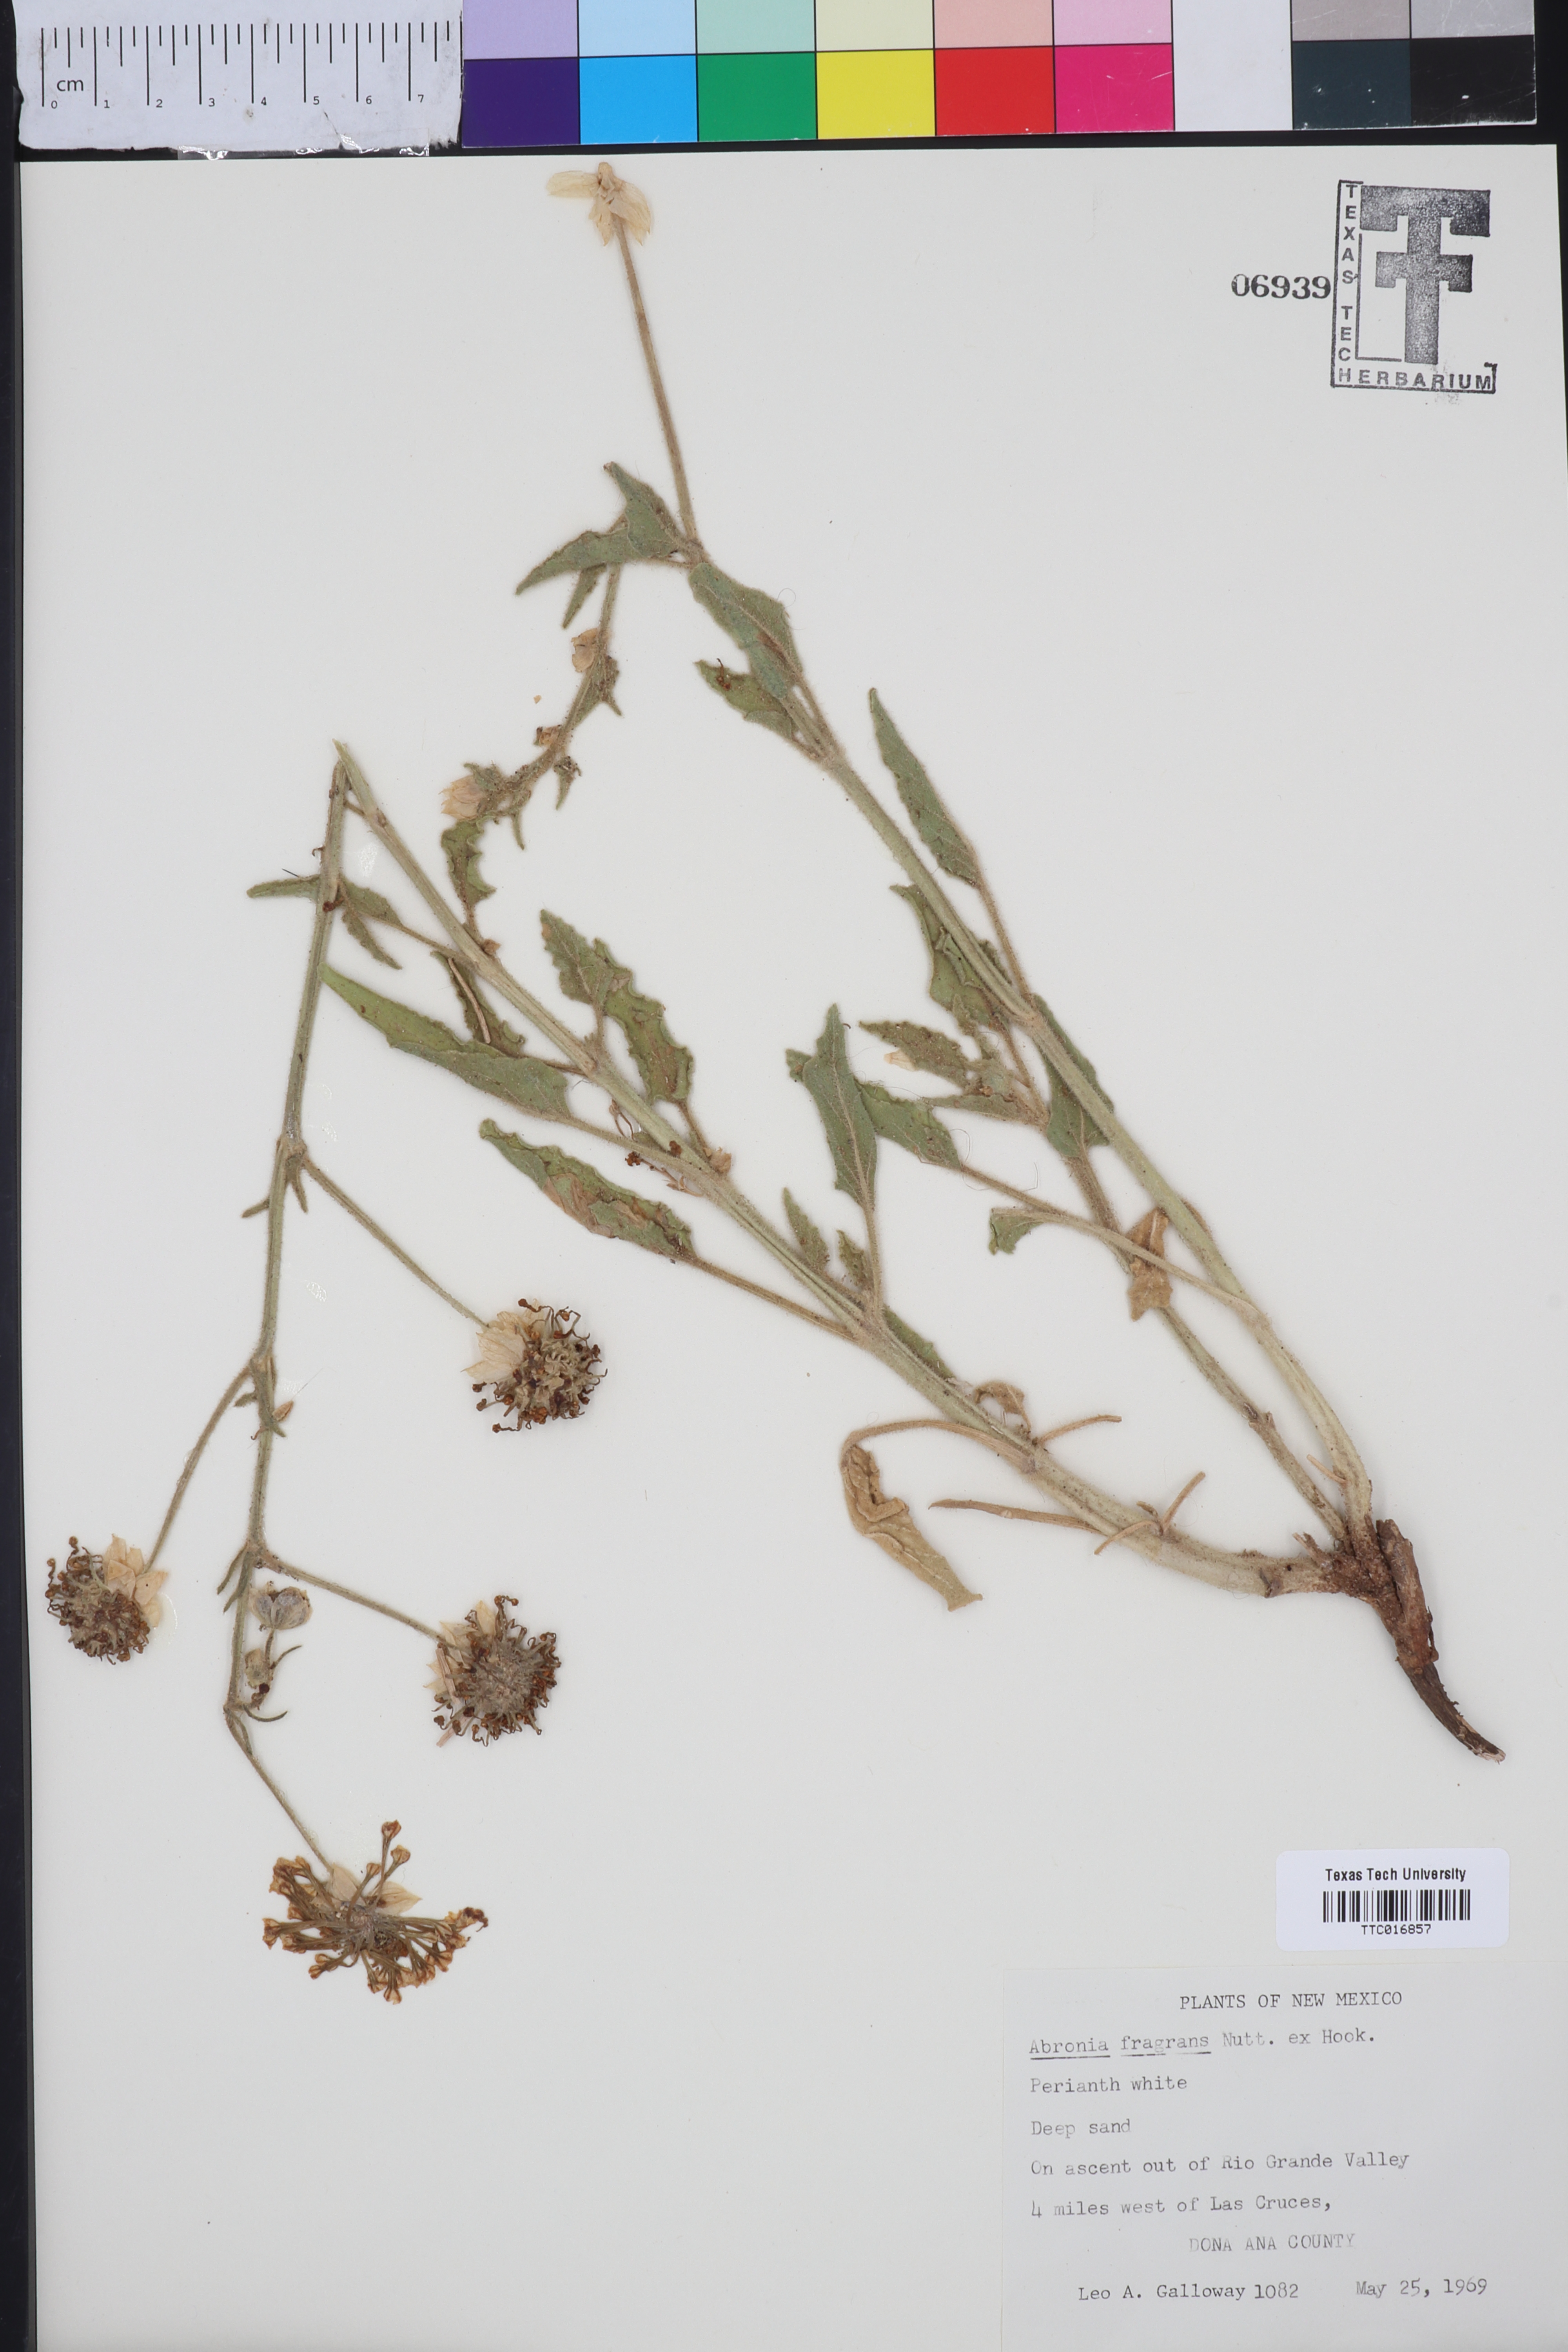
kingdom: Plantae
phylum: Tracheophyta
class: Magnoliopsida
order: Caryophyllales
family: Nyctaginaceae
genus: Abronia
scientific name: Abronia fragrans
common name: Fragrant sand-verbena
